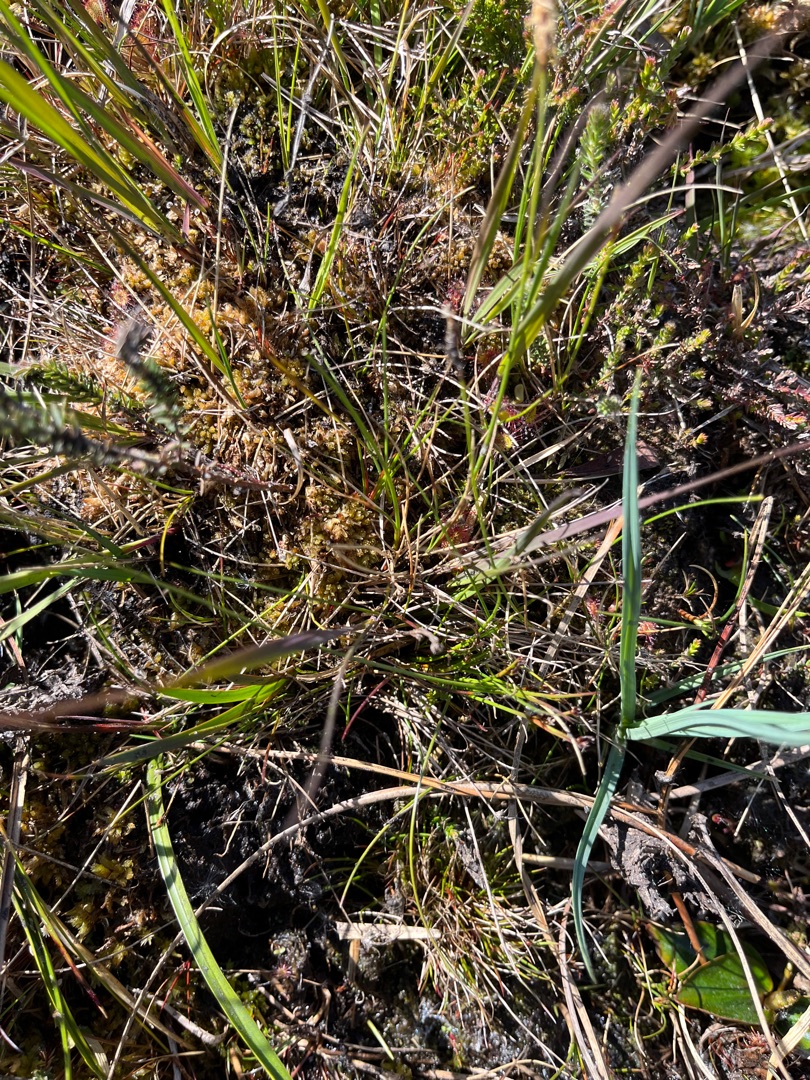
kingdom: Plantae
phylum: Tracheophyta
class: Liliopsida
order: Poales
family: Cyperaceae
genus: Carex
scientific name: Carex dioica
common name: Tvebo star
